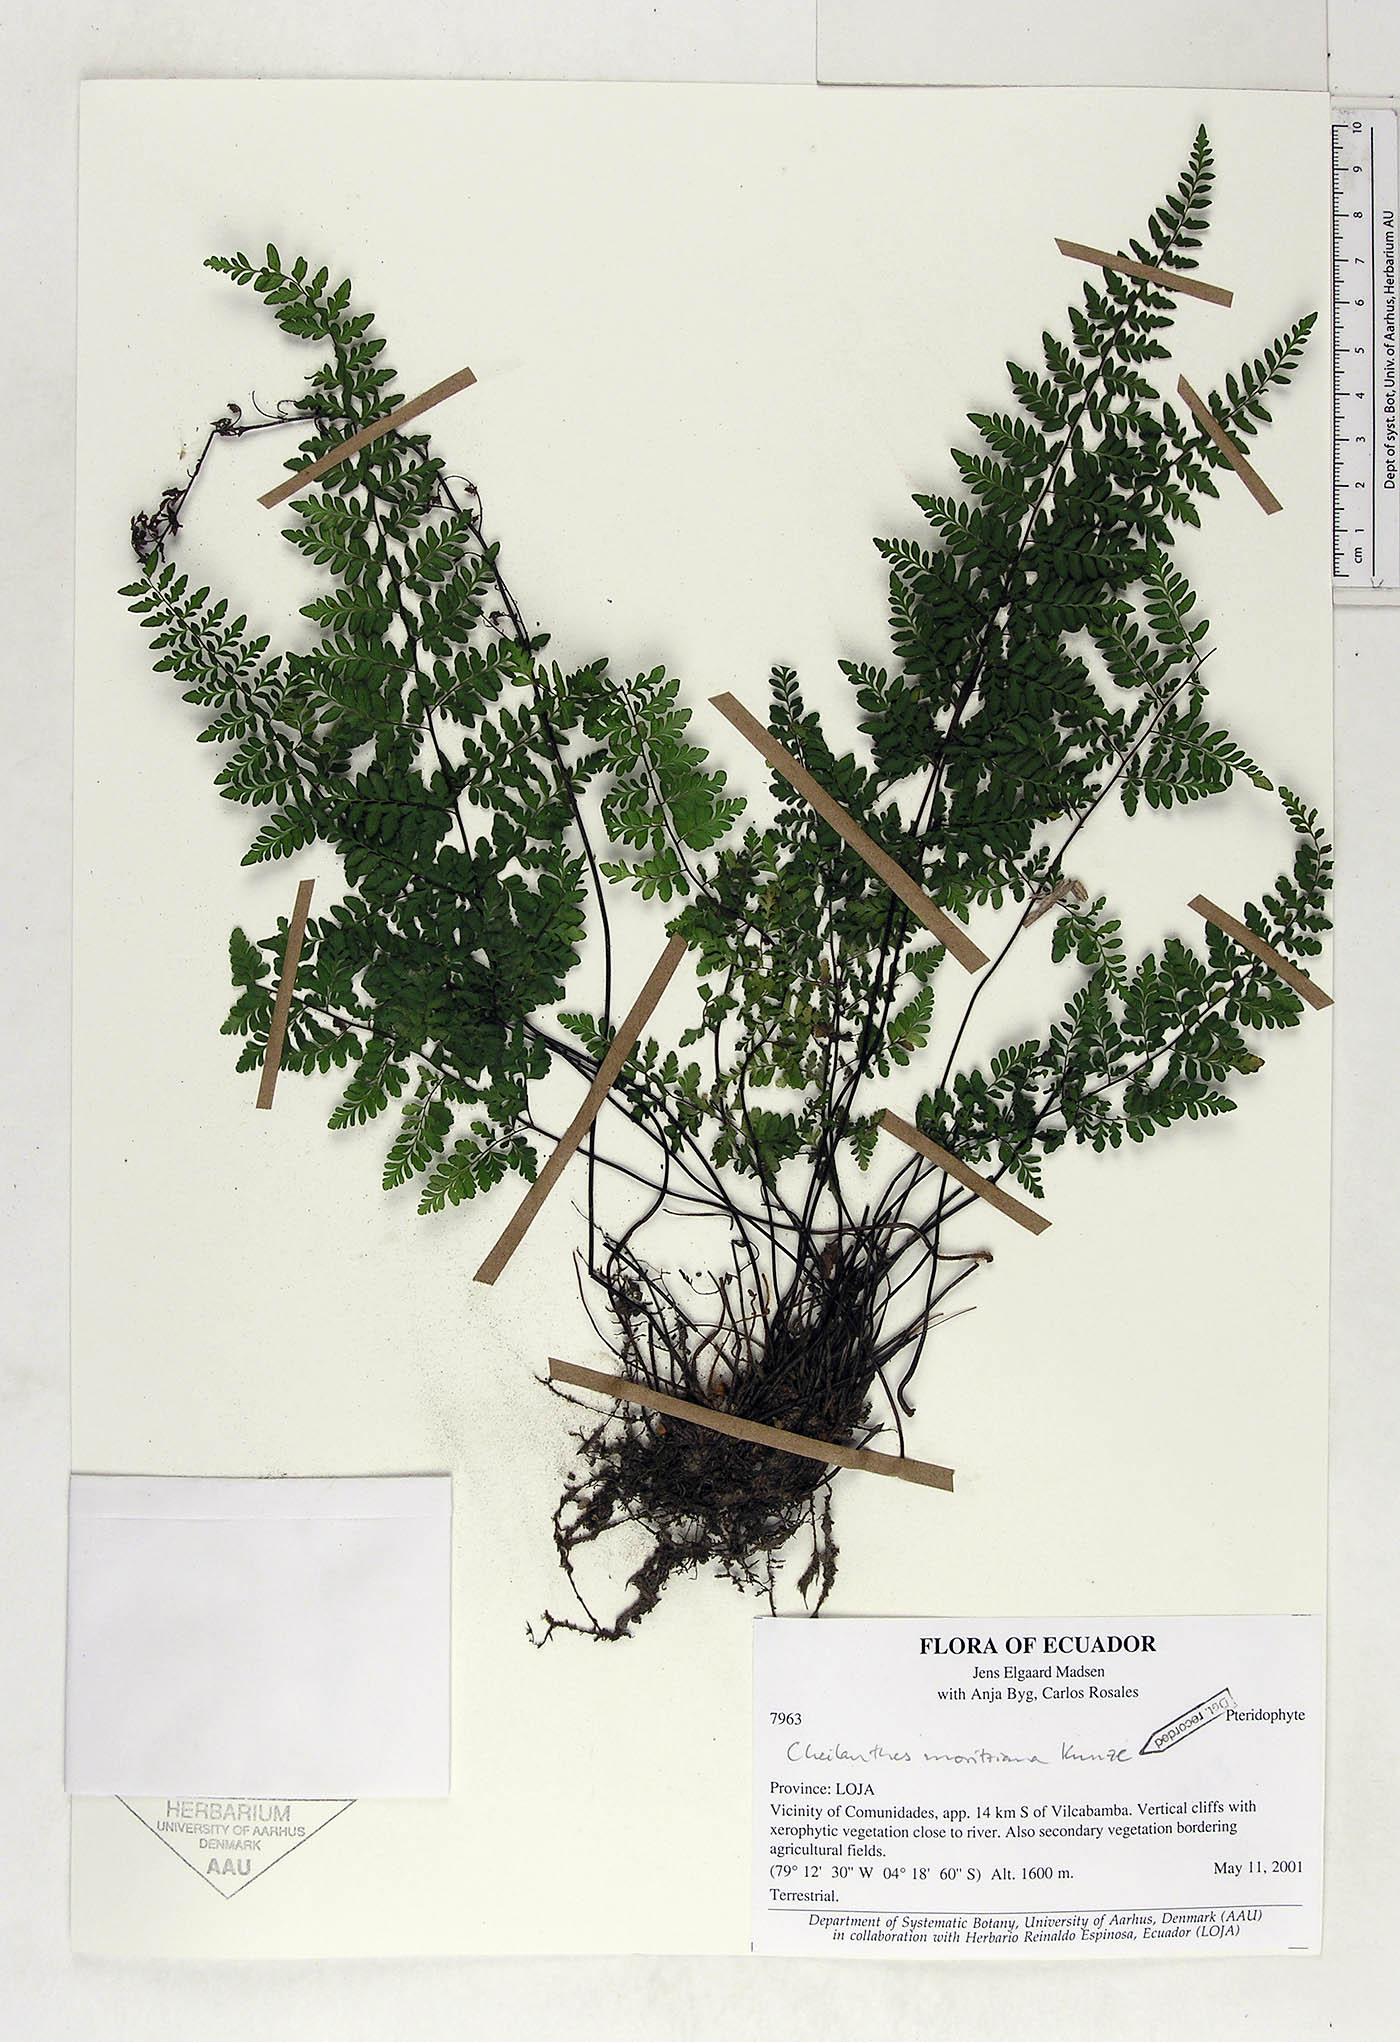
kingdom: Plantae
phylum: Tracheophyta
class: Polypodiopsida
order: Polypodiales
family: Pteridaceae
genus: Myriopteris
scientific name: Myriopteris moritziana
